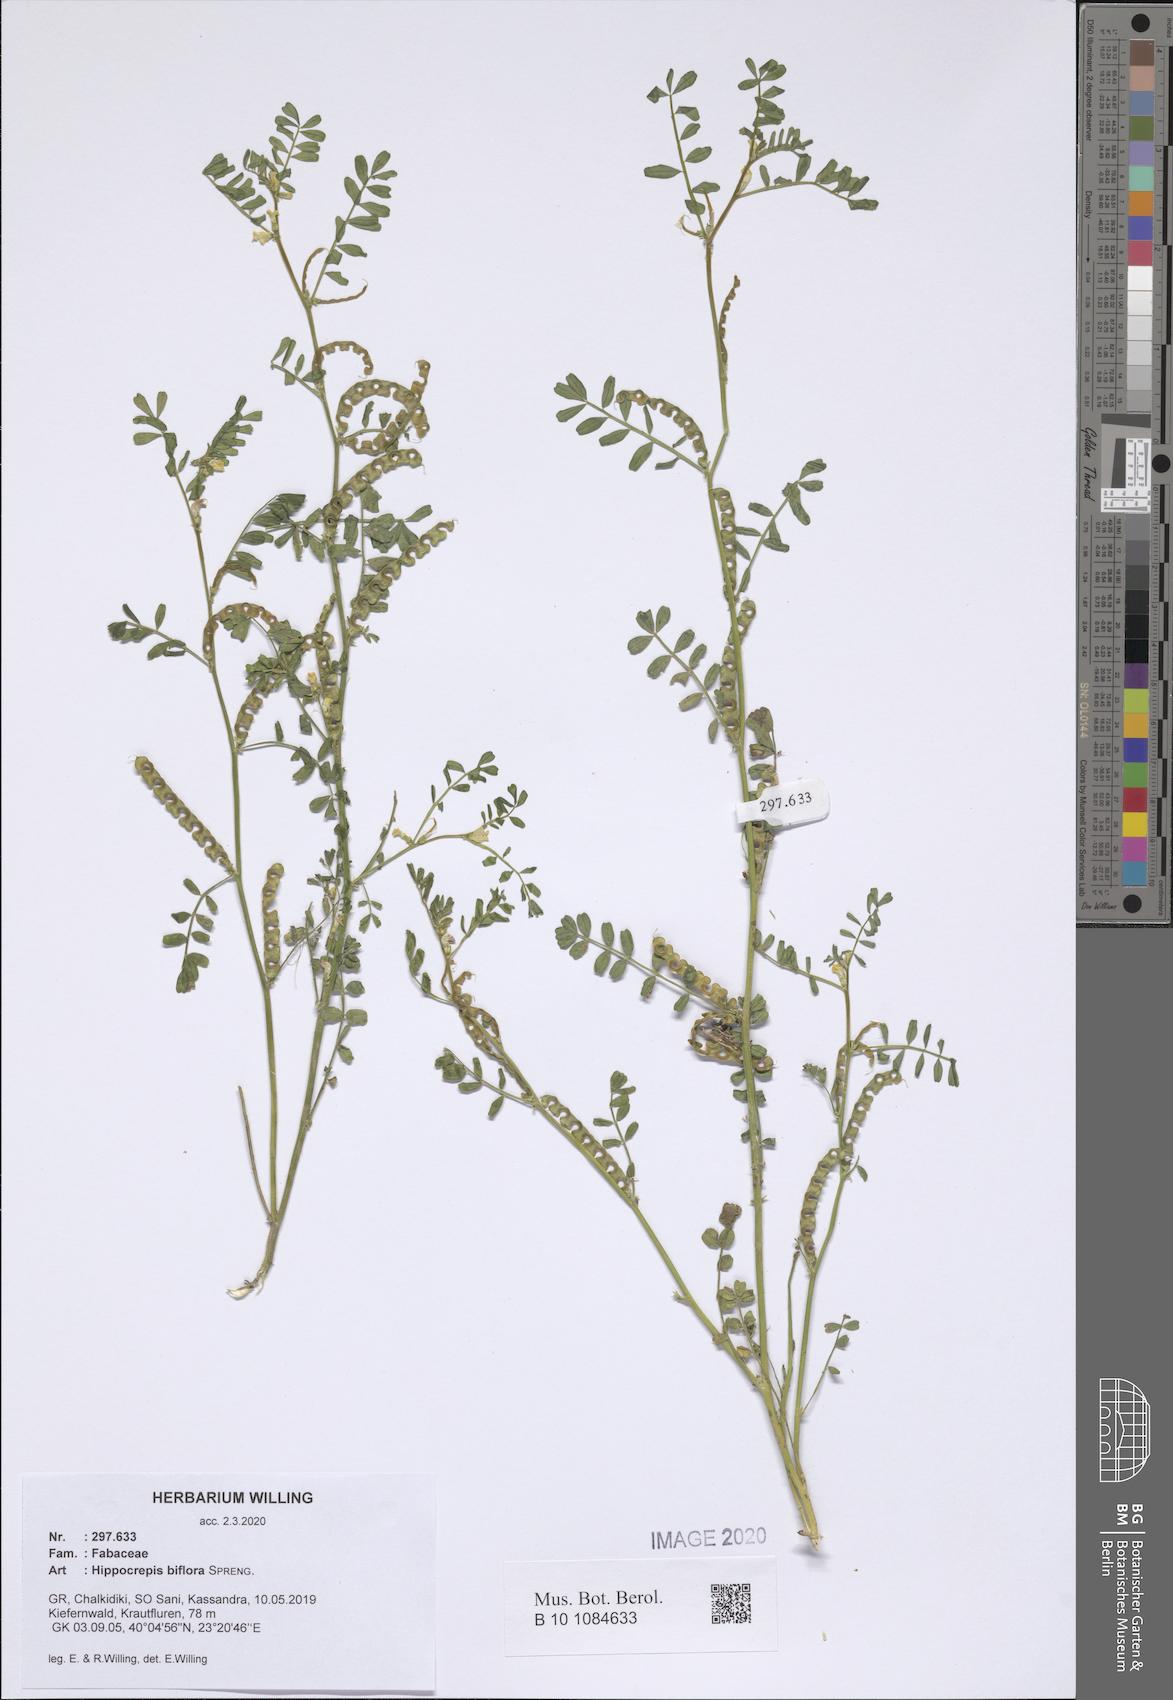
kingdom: Plantae
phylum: Tracheophyta
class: Magnoliopsida
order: Fabales
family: Fabaceae
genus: Hippocrepis
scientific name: Hippocrepis biflora
